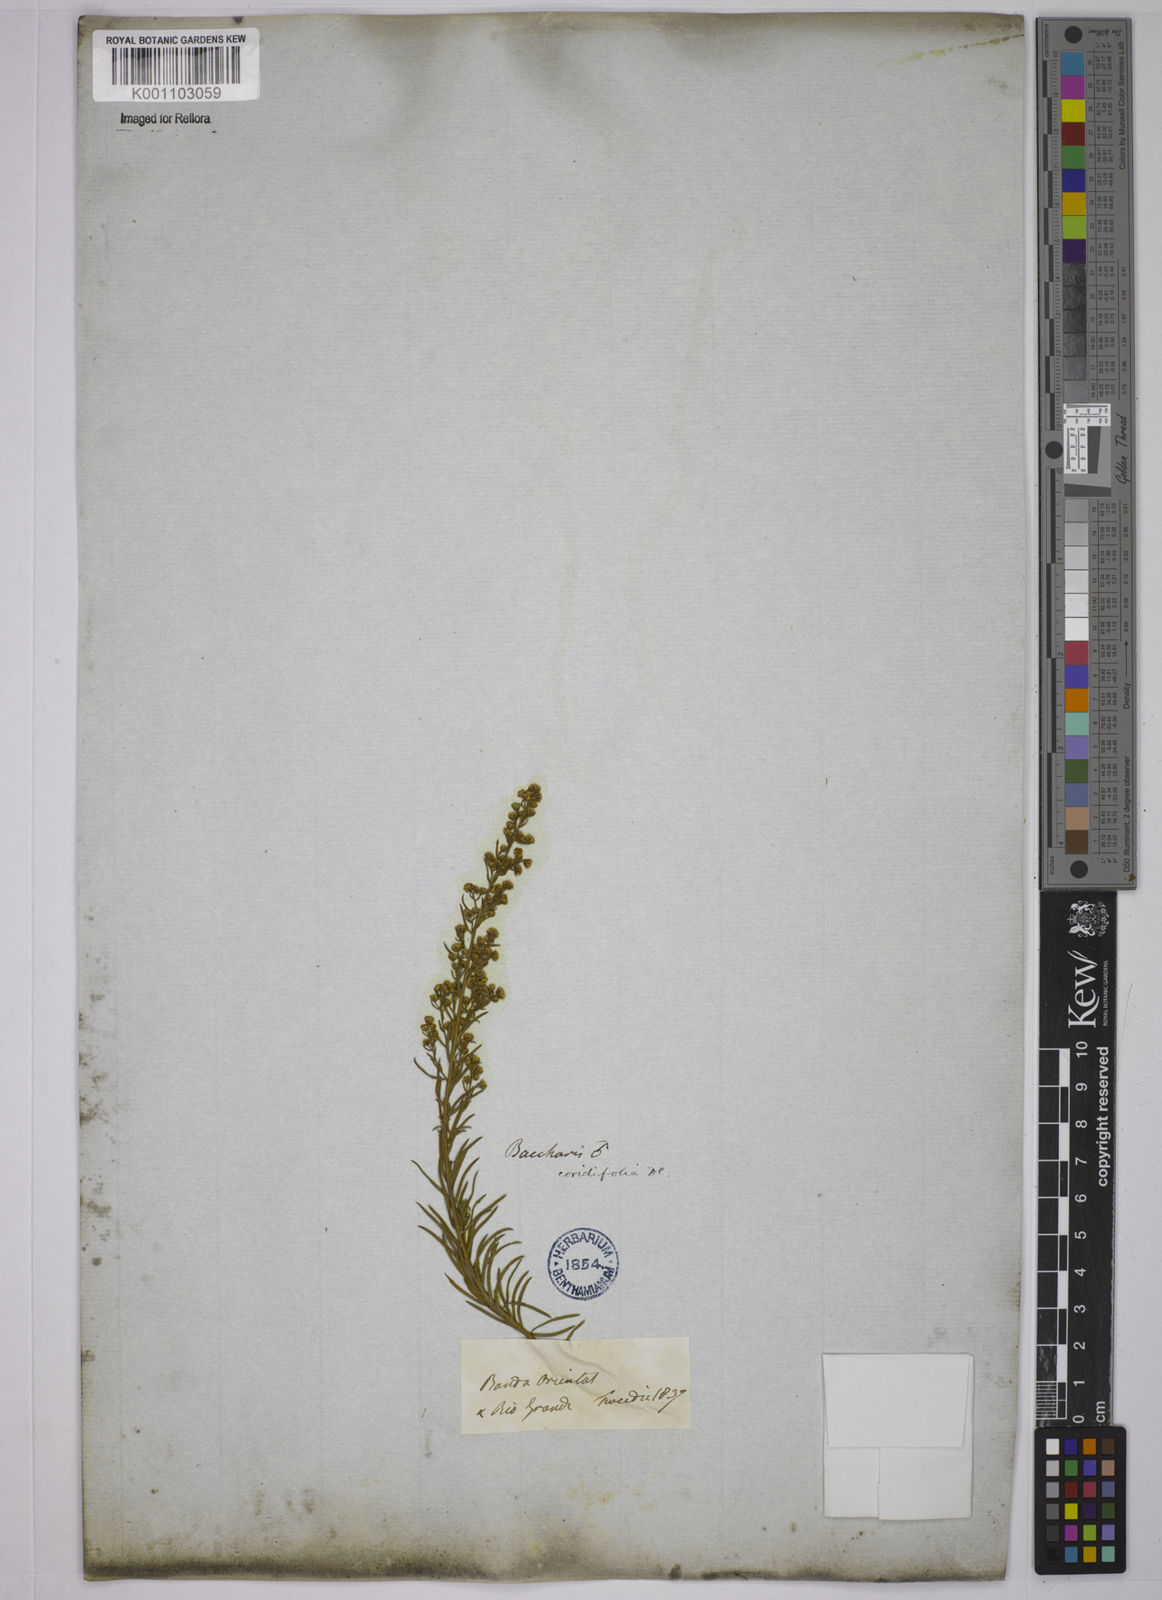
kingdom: Plantae
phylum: Tracheophyta
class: Magnoliopsida
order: Asterales
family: Asteraceae
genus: Baccharis
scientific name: Baccharis coridifolia
